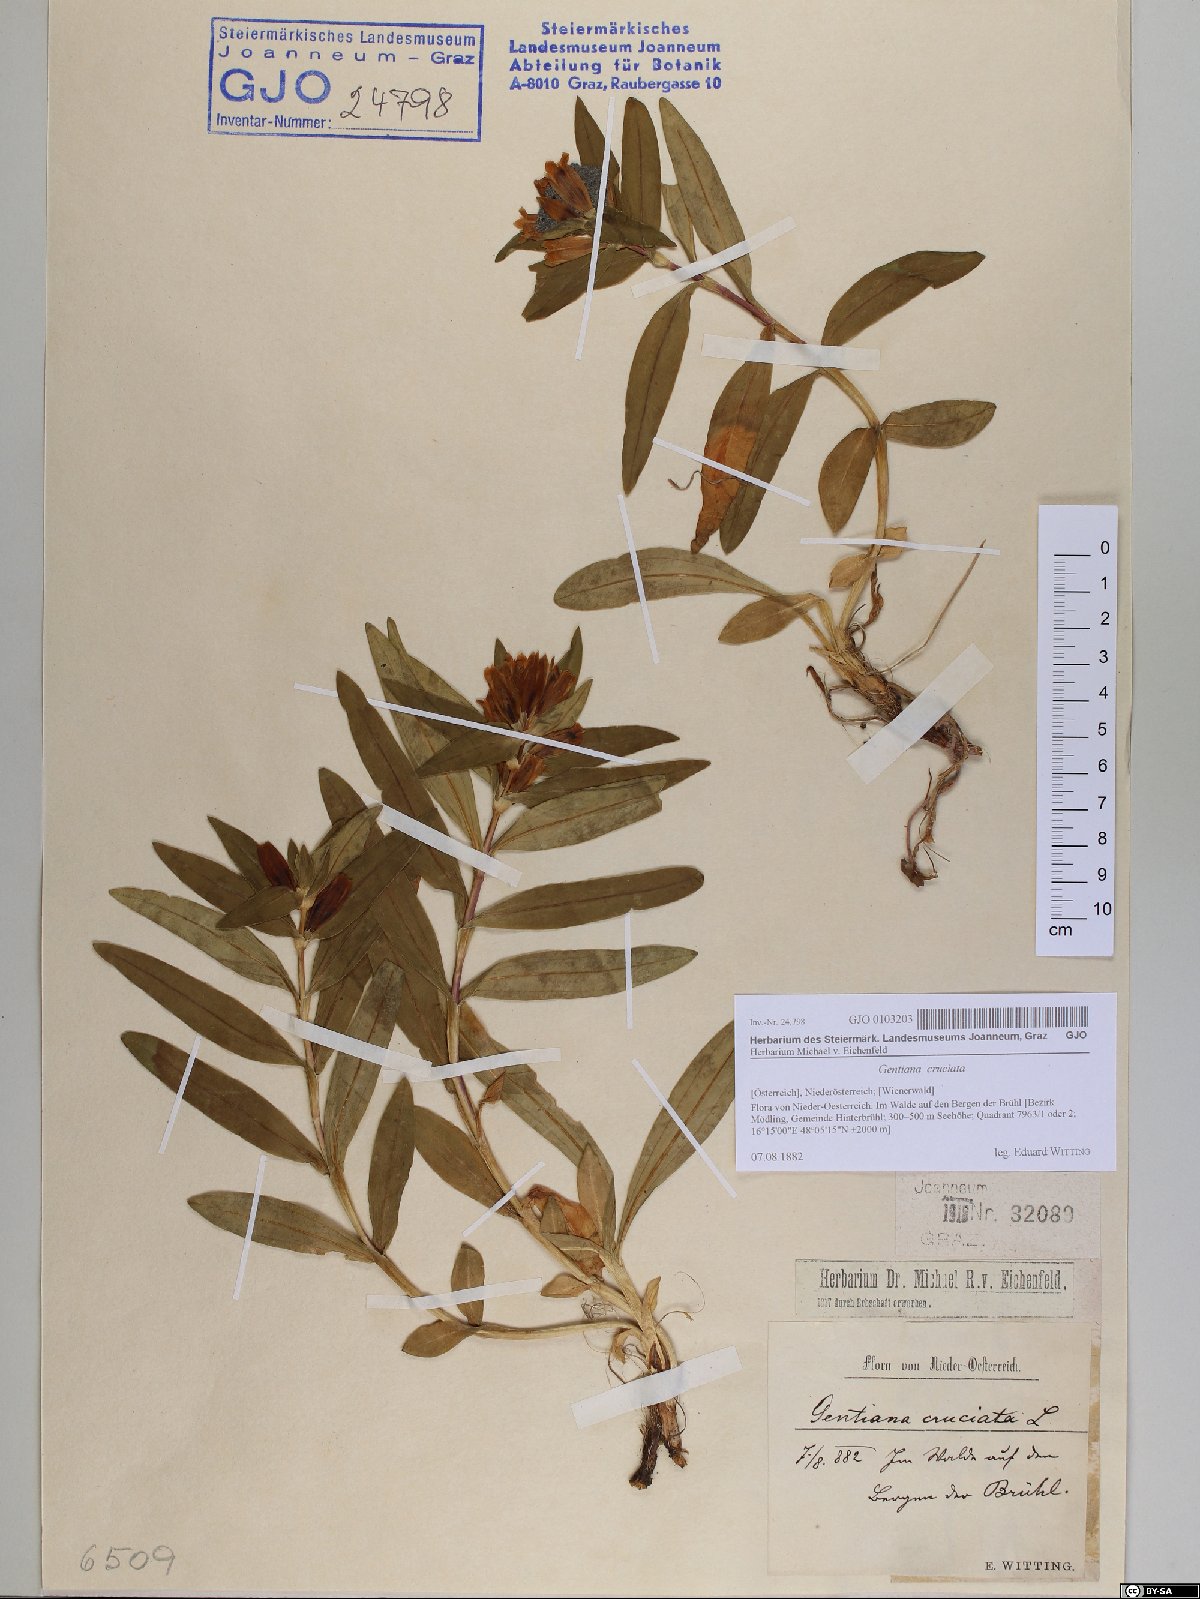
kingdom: Plantae
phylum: Tracheophyta
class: Magnoliopsida
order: Gentianales
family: Gentianaceae
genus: Gentiana
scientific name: Gentiana cruciata
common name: Cross gentian
